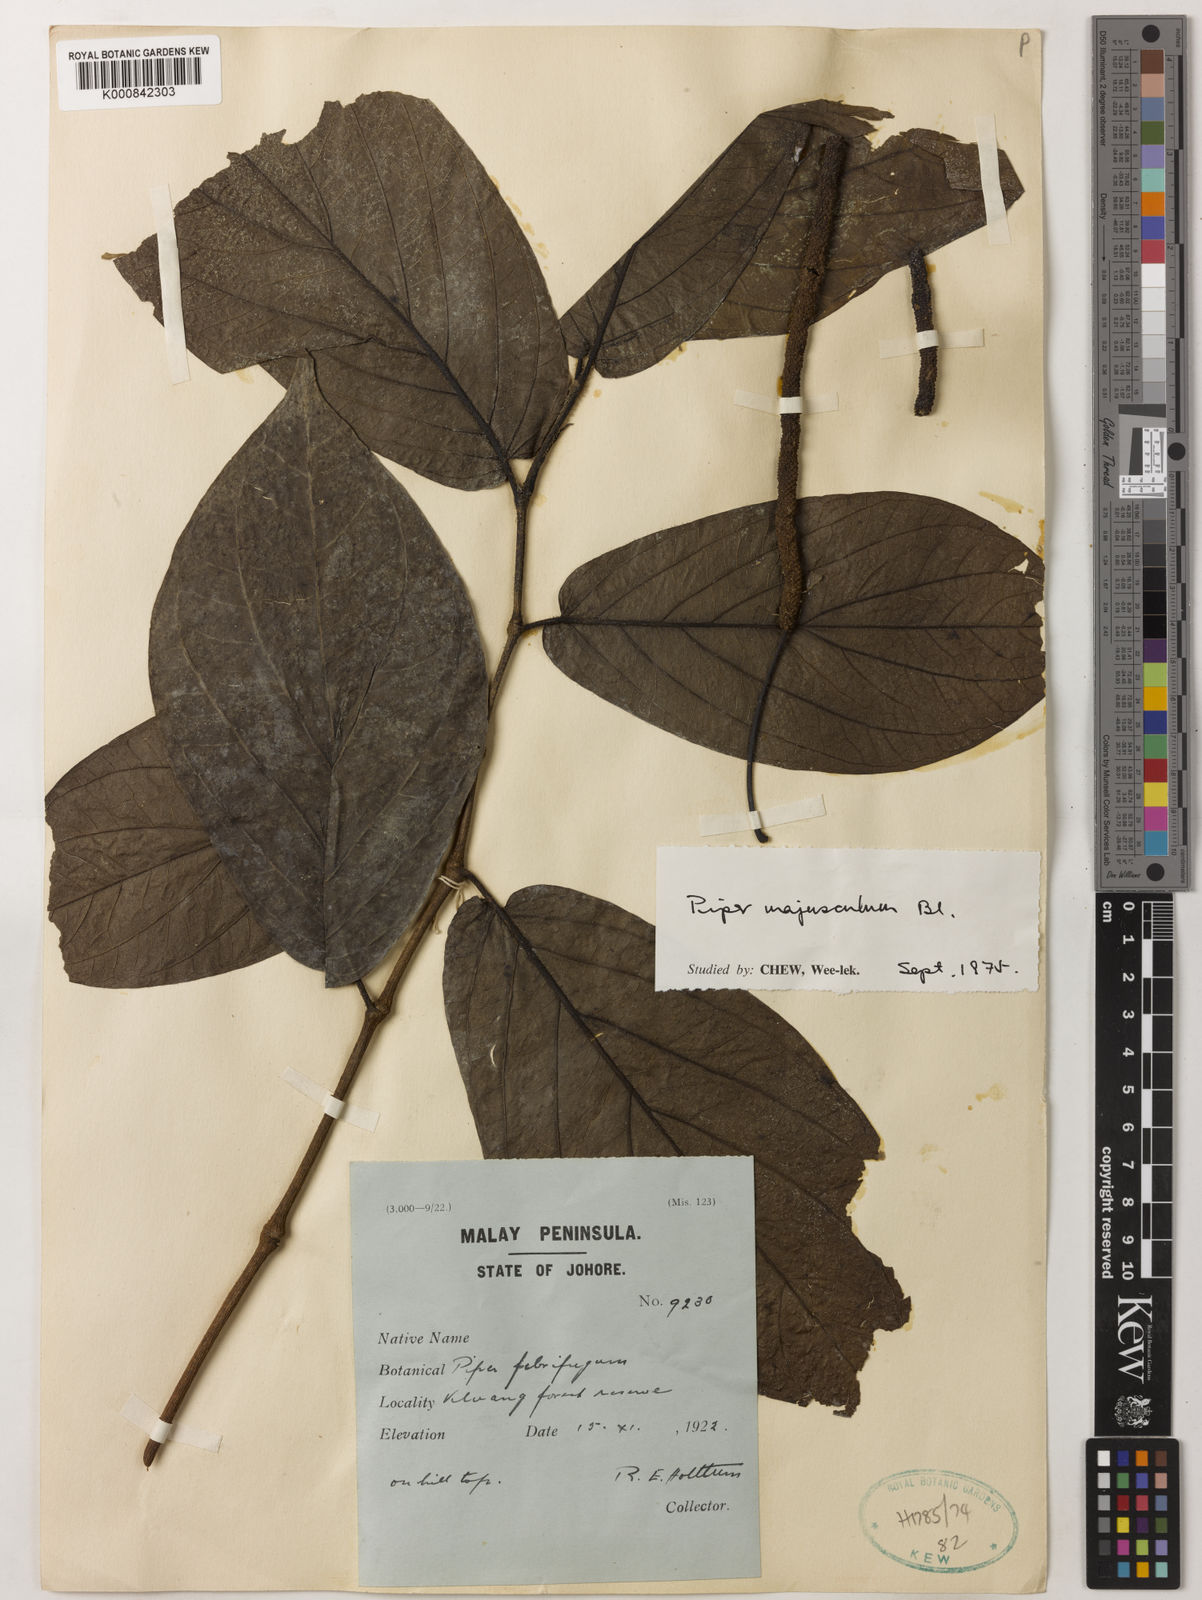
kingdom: Plantae
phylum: Tracheophyta
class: Magnoliopsida
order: Piperales
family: Piperaceae
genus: Piper
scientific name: Piper majusculum
